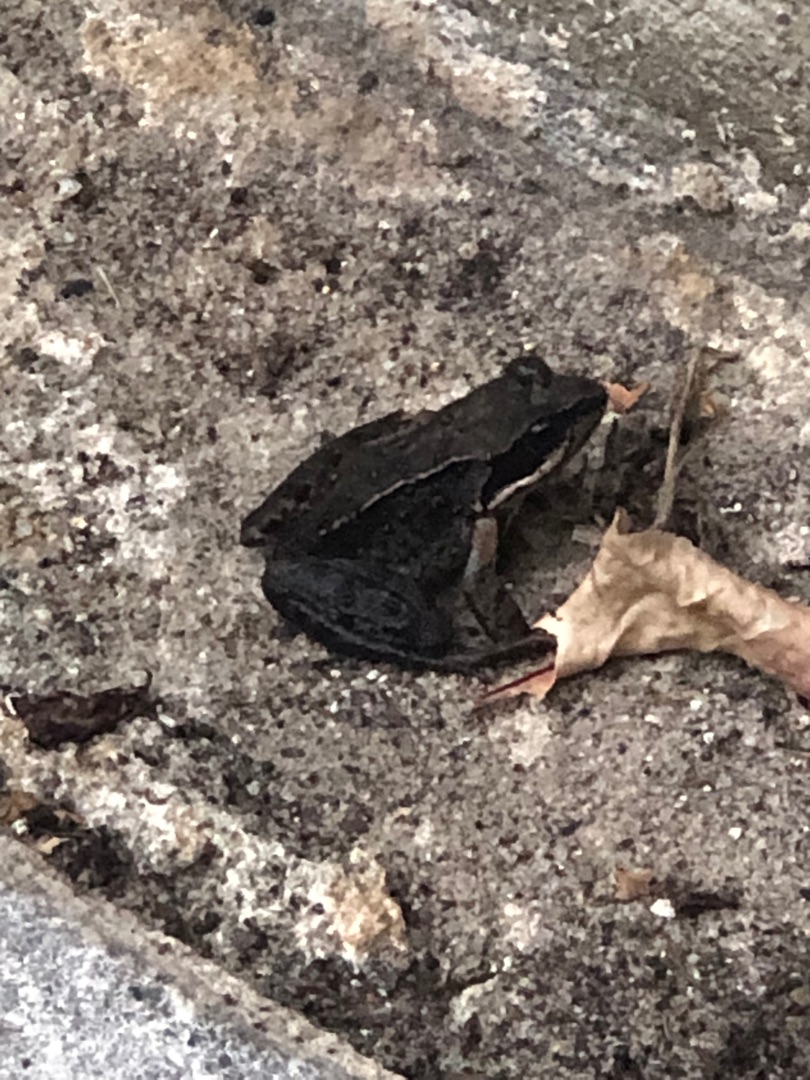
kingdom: Animalia
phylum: Chordata
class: Amphibia
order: Anura
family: Ranidae
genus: Rana
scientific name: Rana temporaria
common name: Butsnudet frø
